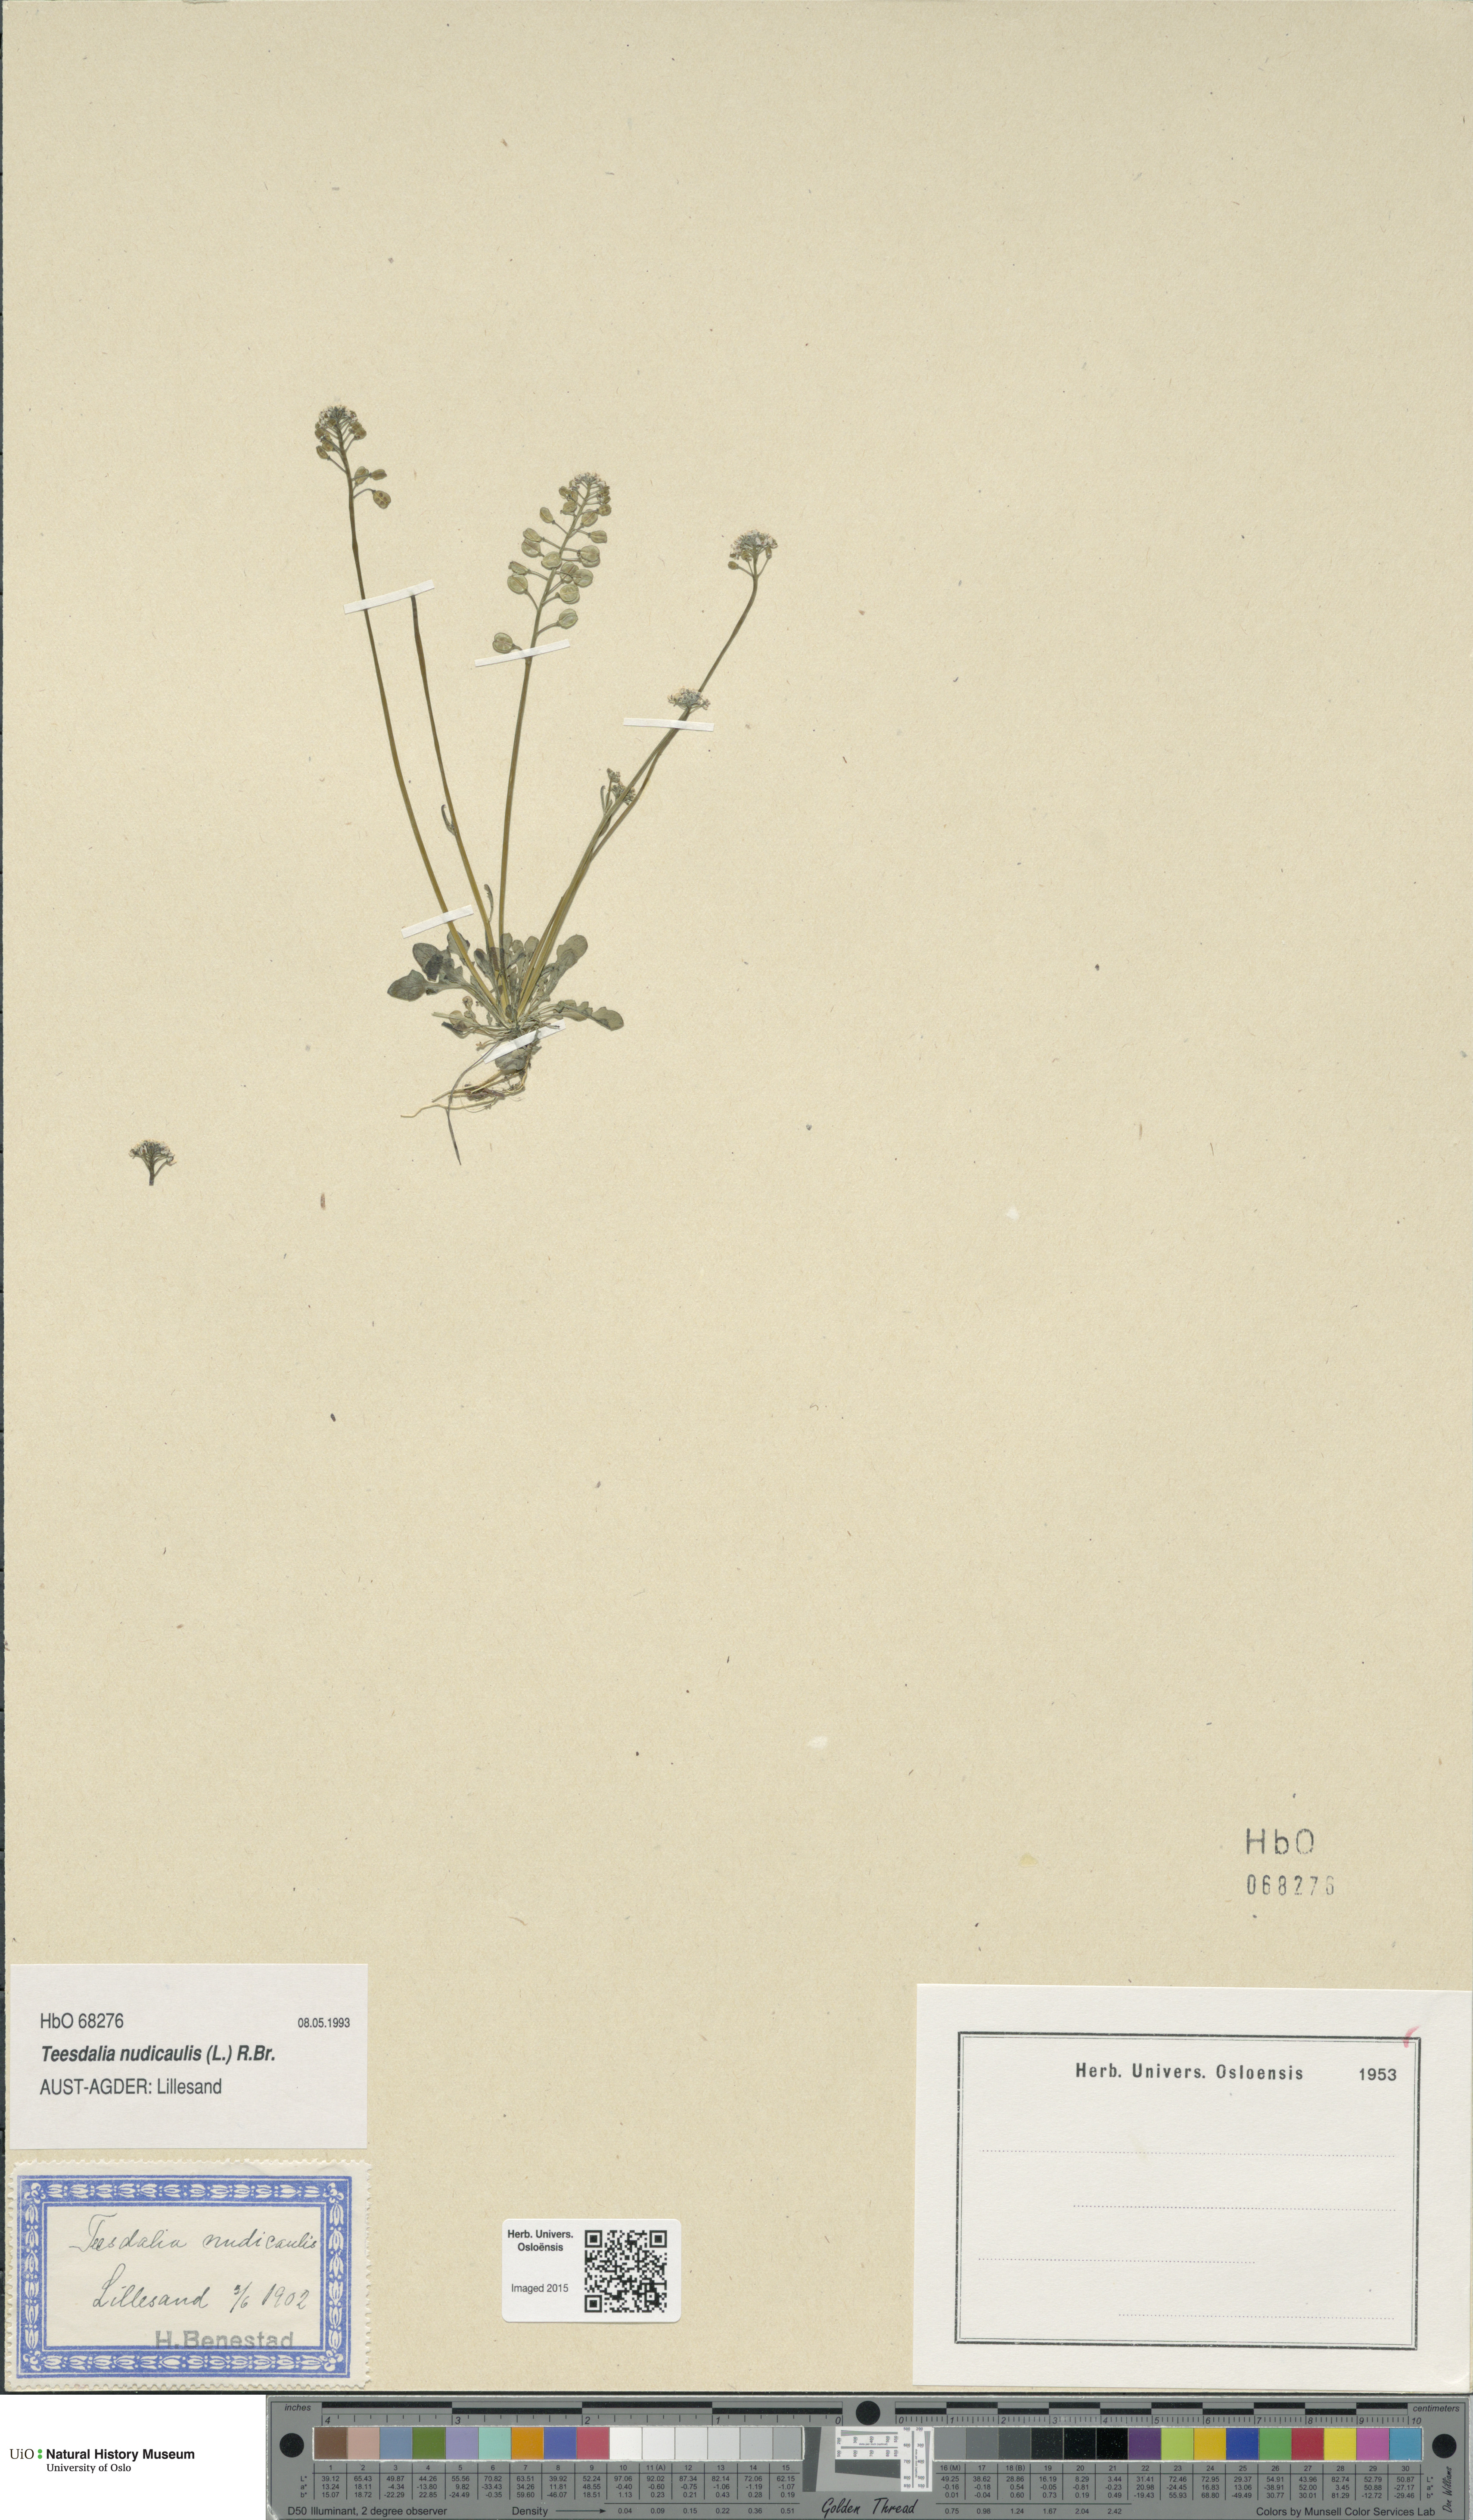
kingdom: Plantae
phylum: Tracheophyta
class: Magnoliopsida
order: Brassicales
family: Brassicaceae
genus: Teesdalia
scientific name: Teesdalia nudicaulis
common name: Shepherd's cress
